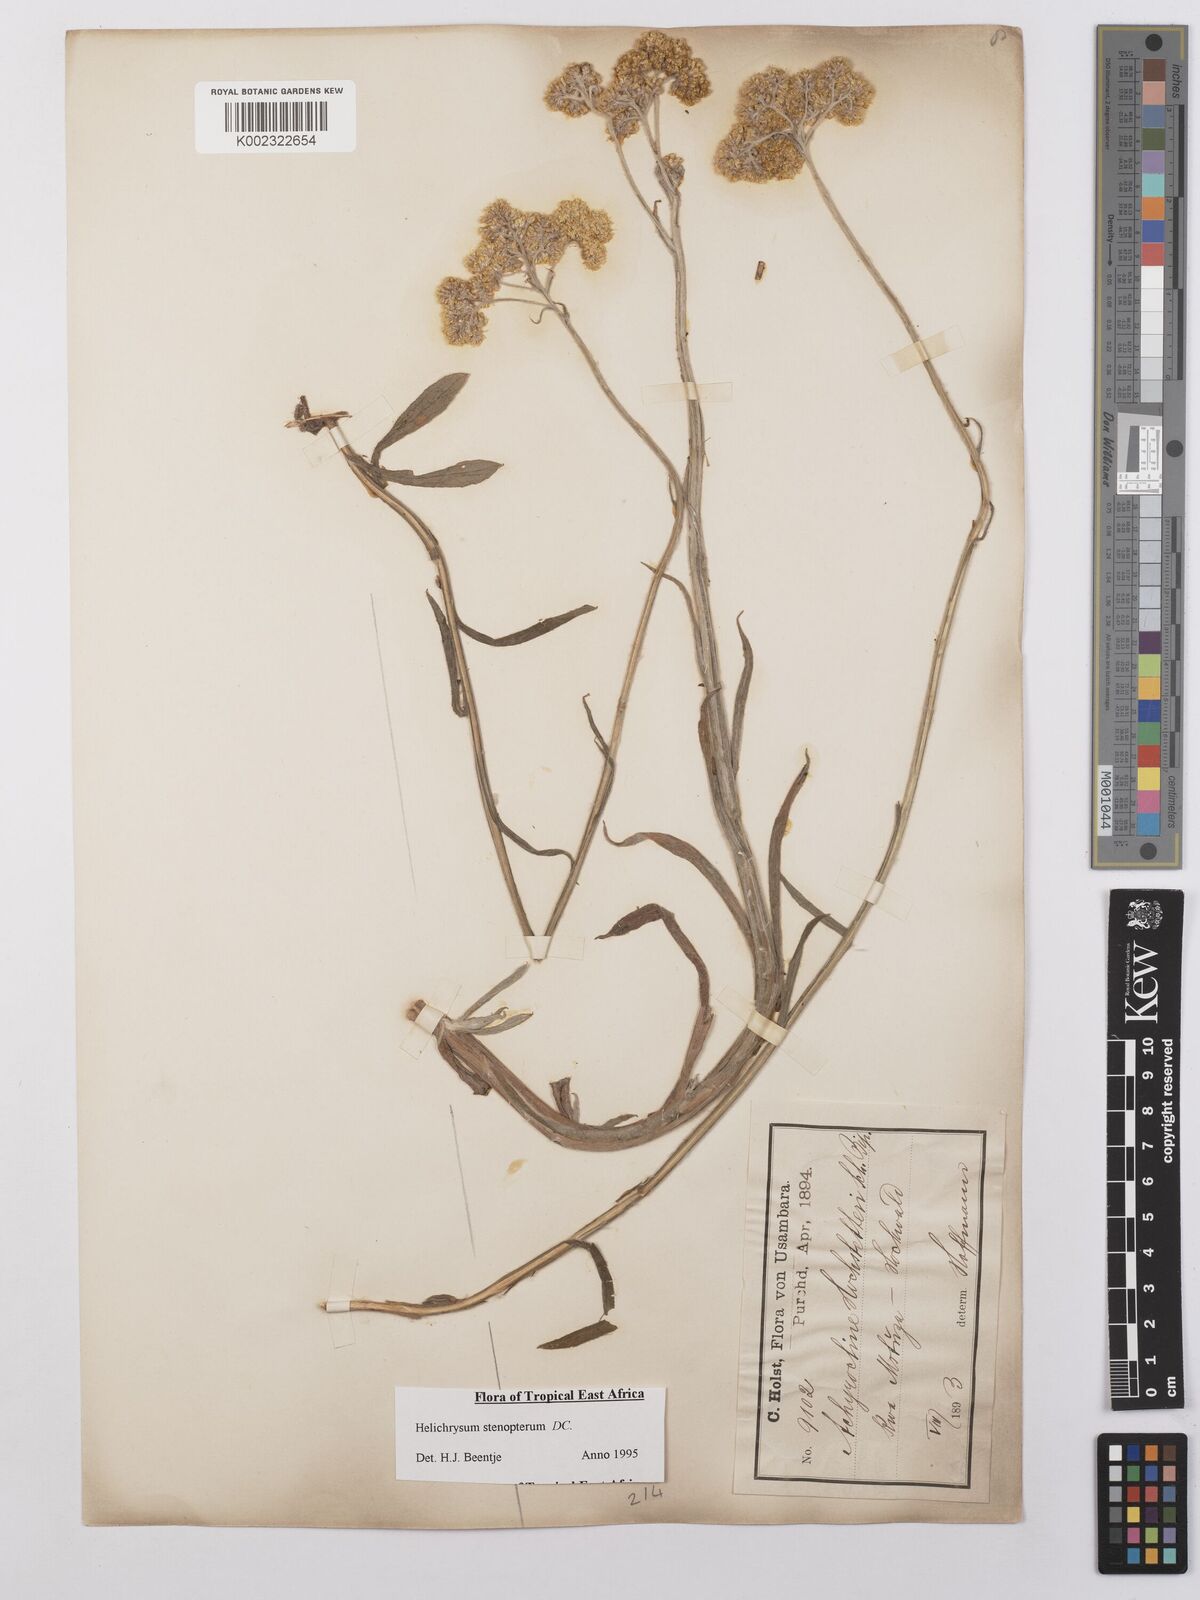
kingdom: Plantae
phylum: Tracheophyta
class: Magnoliopsida
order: Asterales
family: Asteraceae
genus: Helichrysum
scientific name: Helichrysum stenopterum
